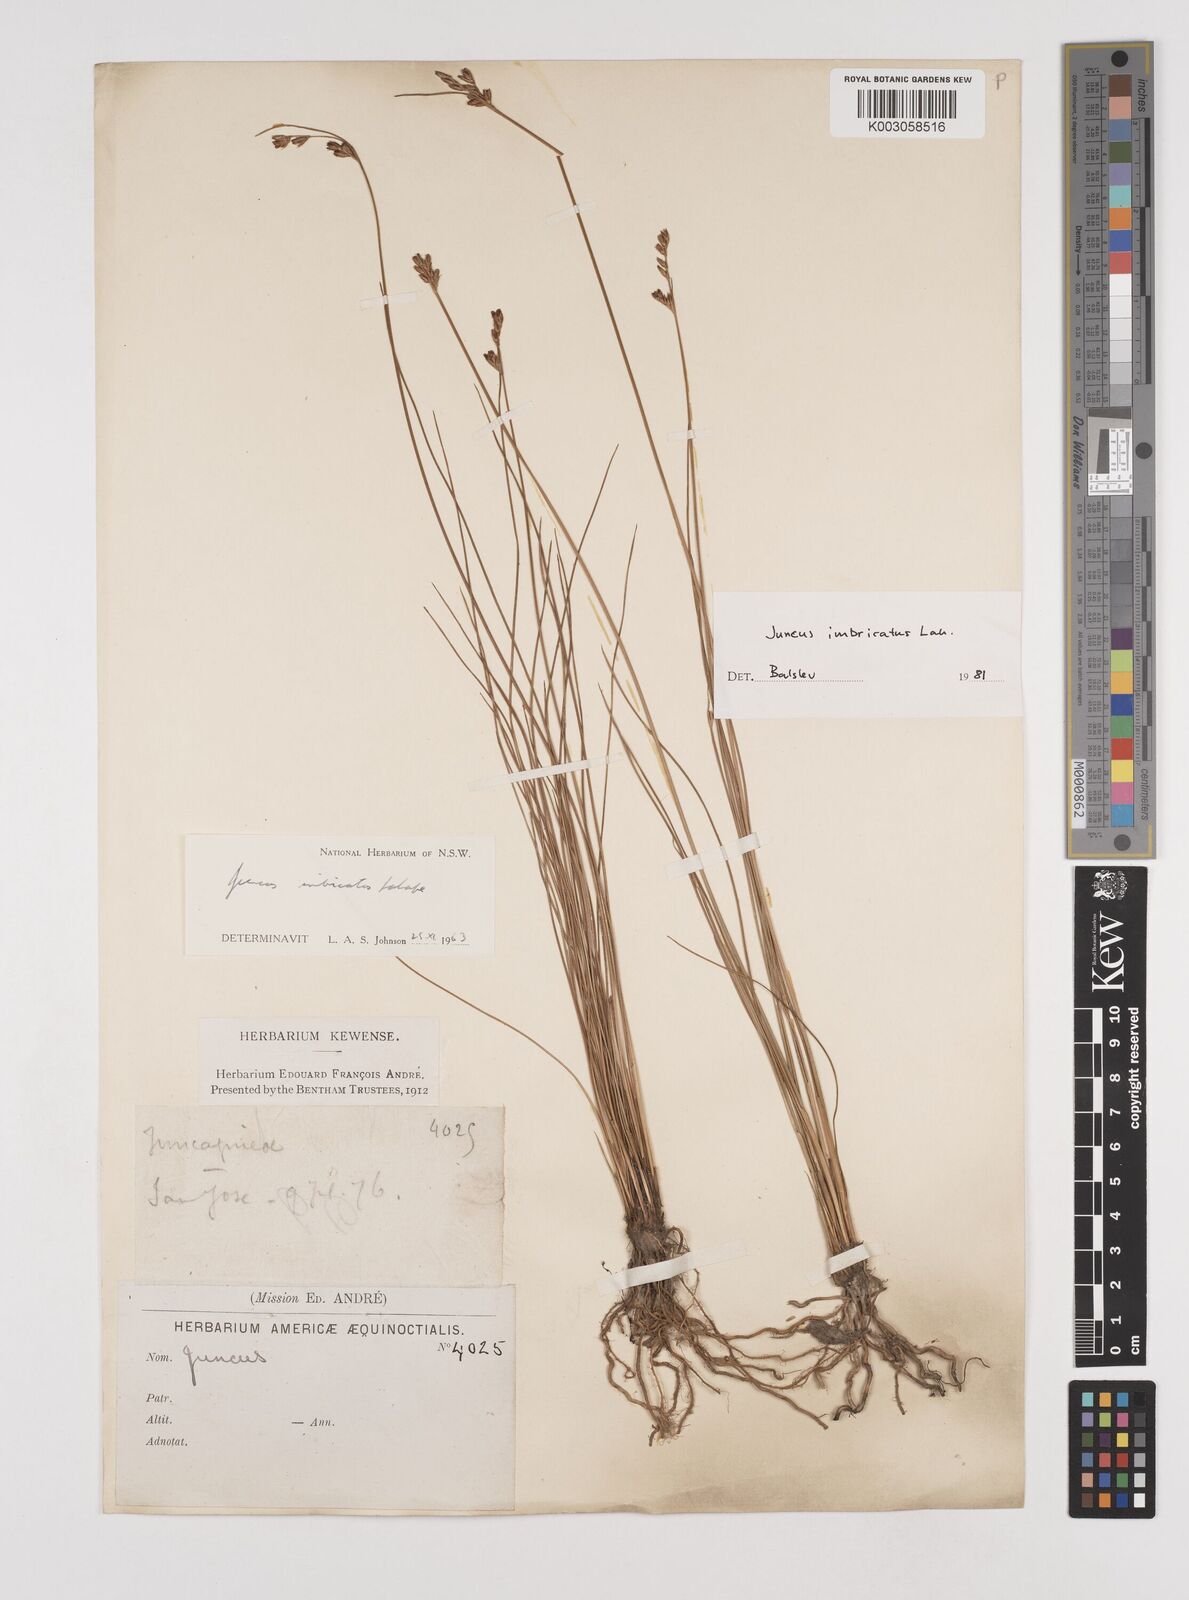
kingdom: Plantae
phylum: Tracheophyta
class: Liliopsida
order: Poales
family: Juncaceae
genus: Juncus
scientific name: Juncus imbricatus
